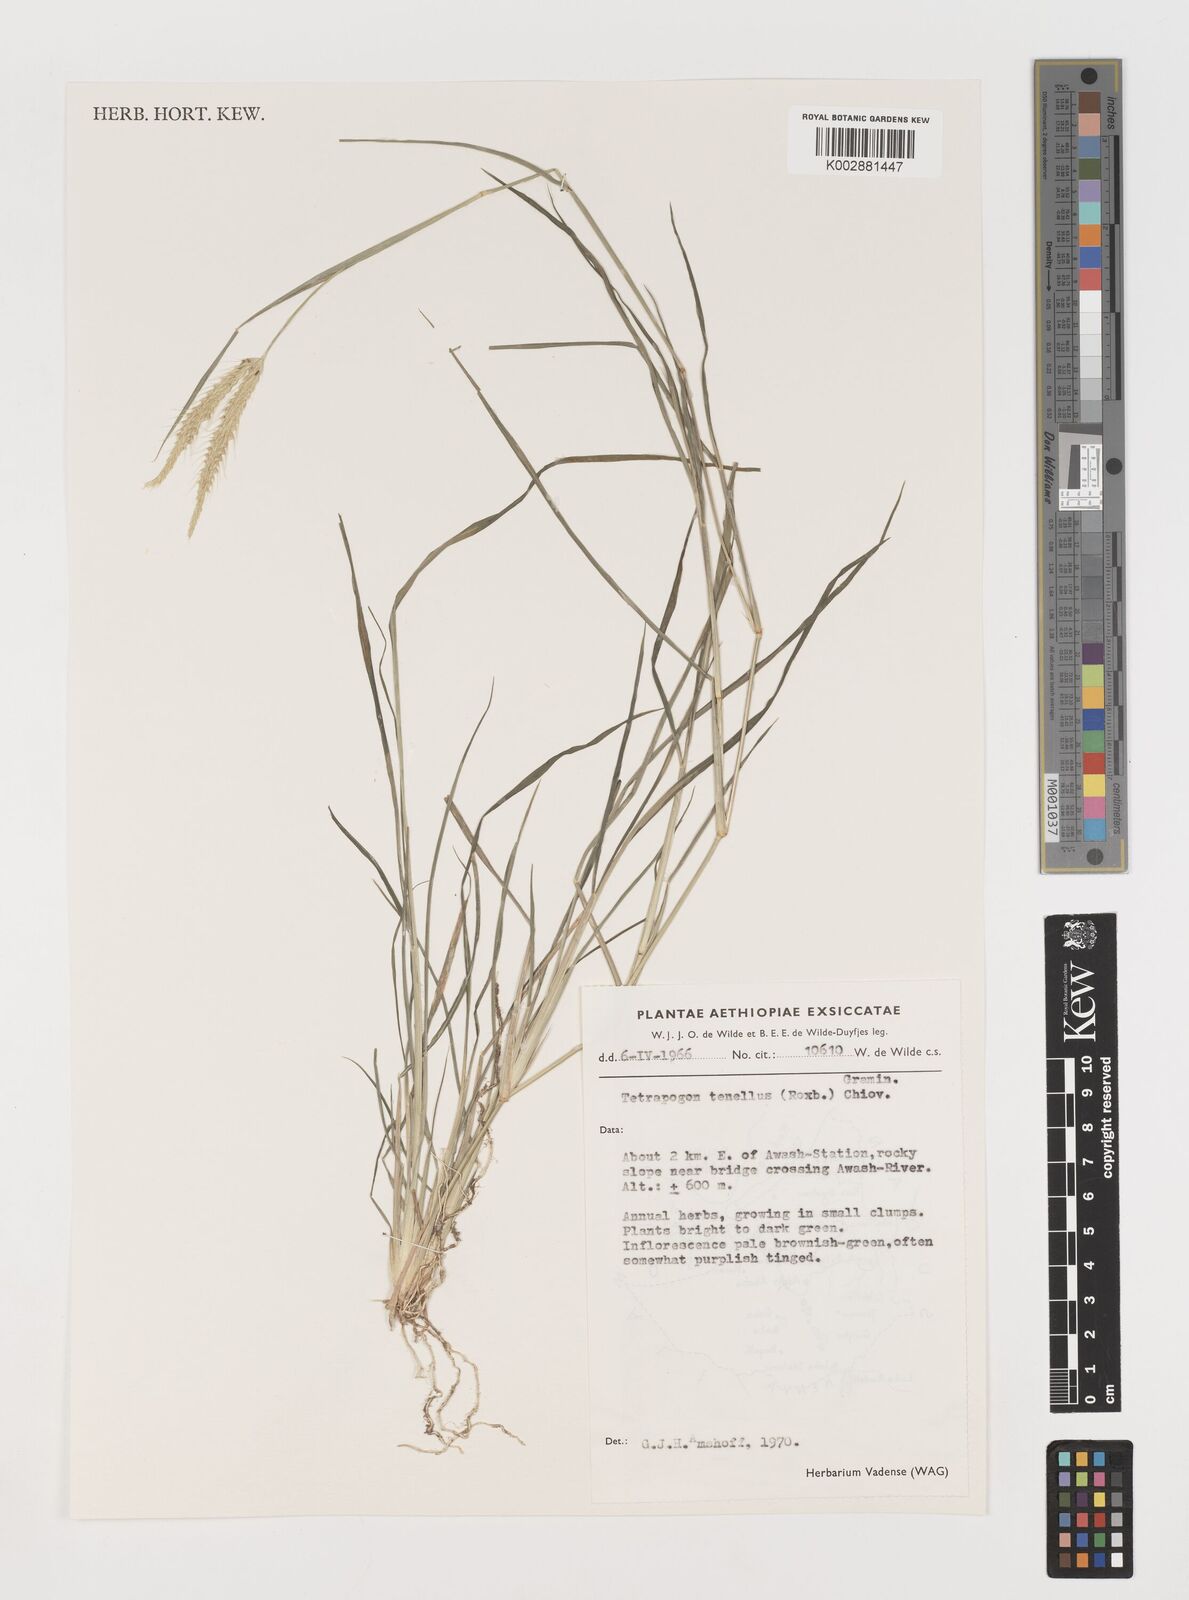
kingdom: Plantae
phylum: Tracheophyta
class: Liliopsida
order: Poales
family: Poaceae
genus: Tetrapogon
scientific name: Tetrapogon tenellus
